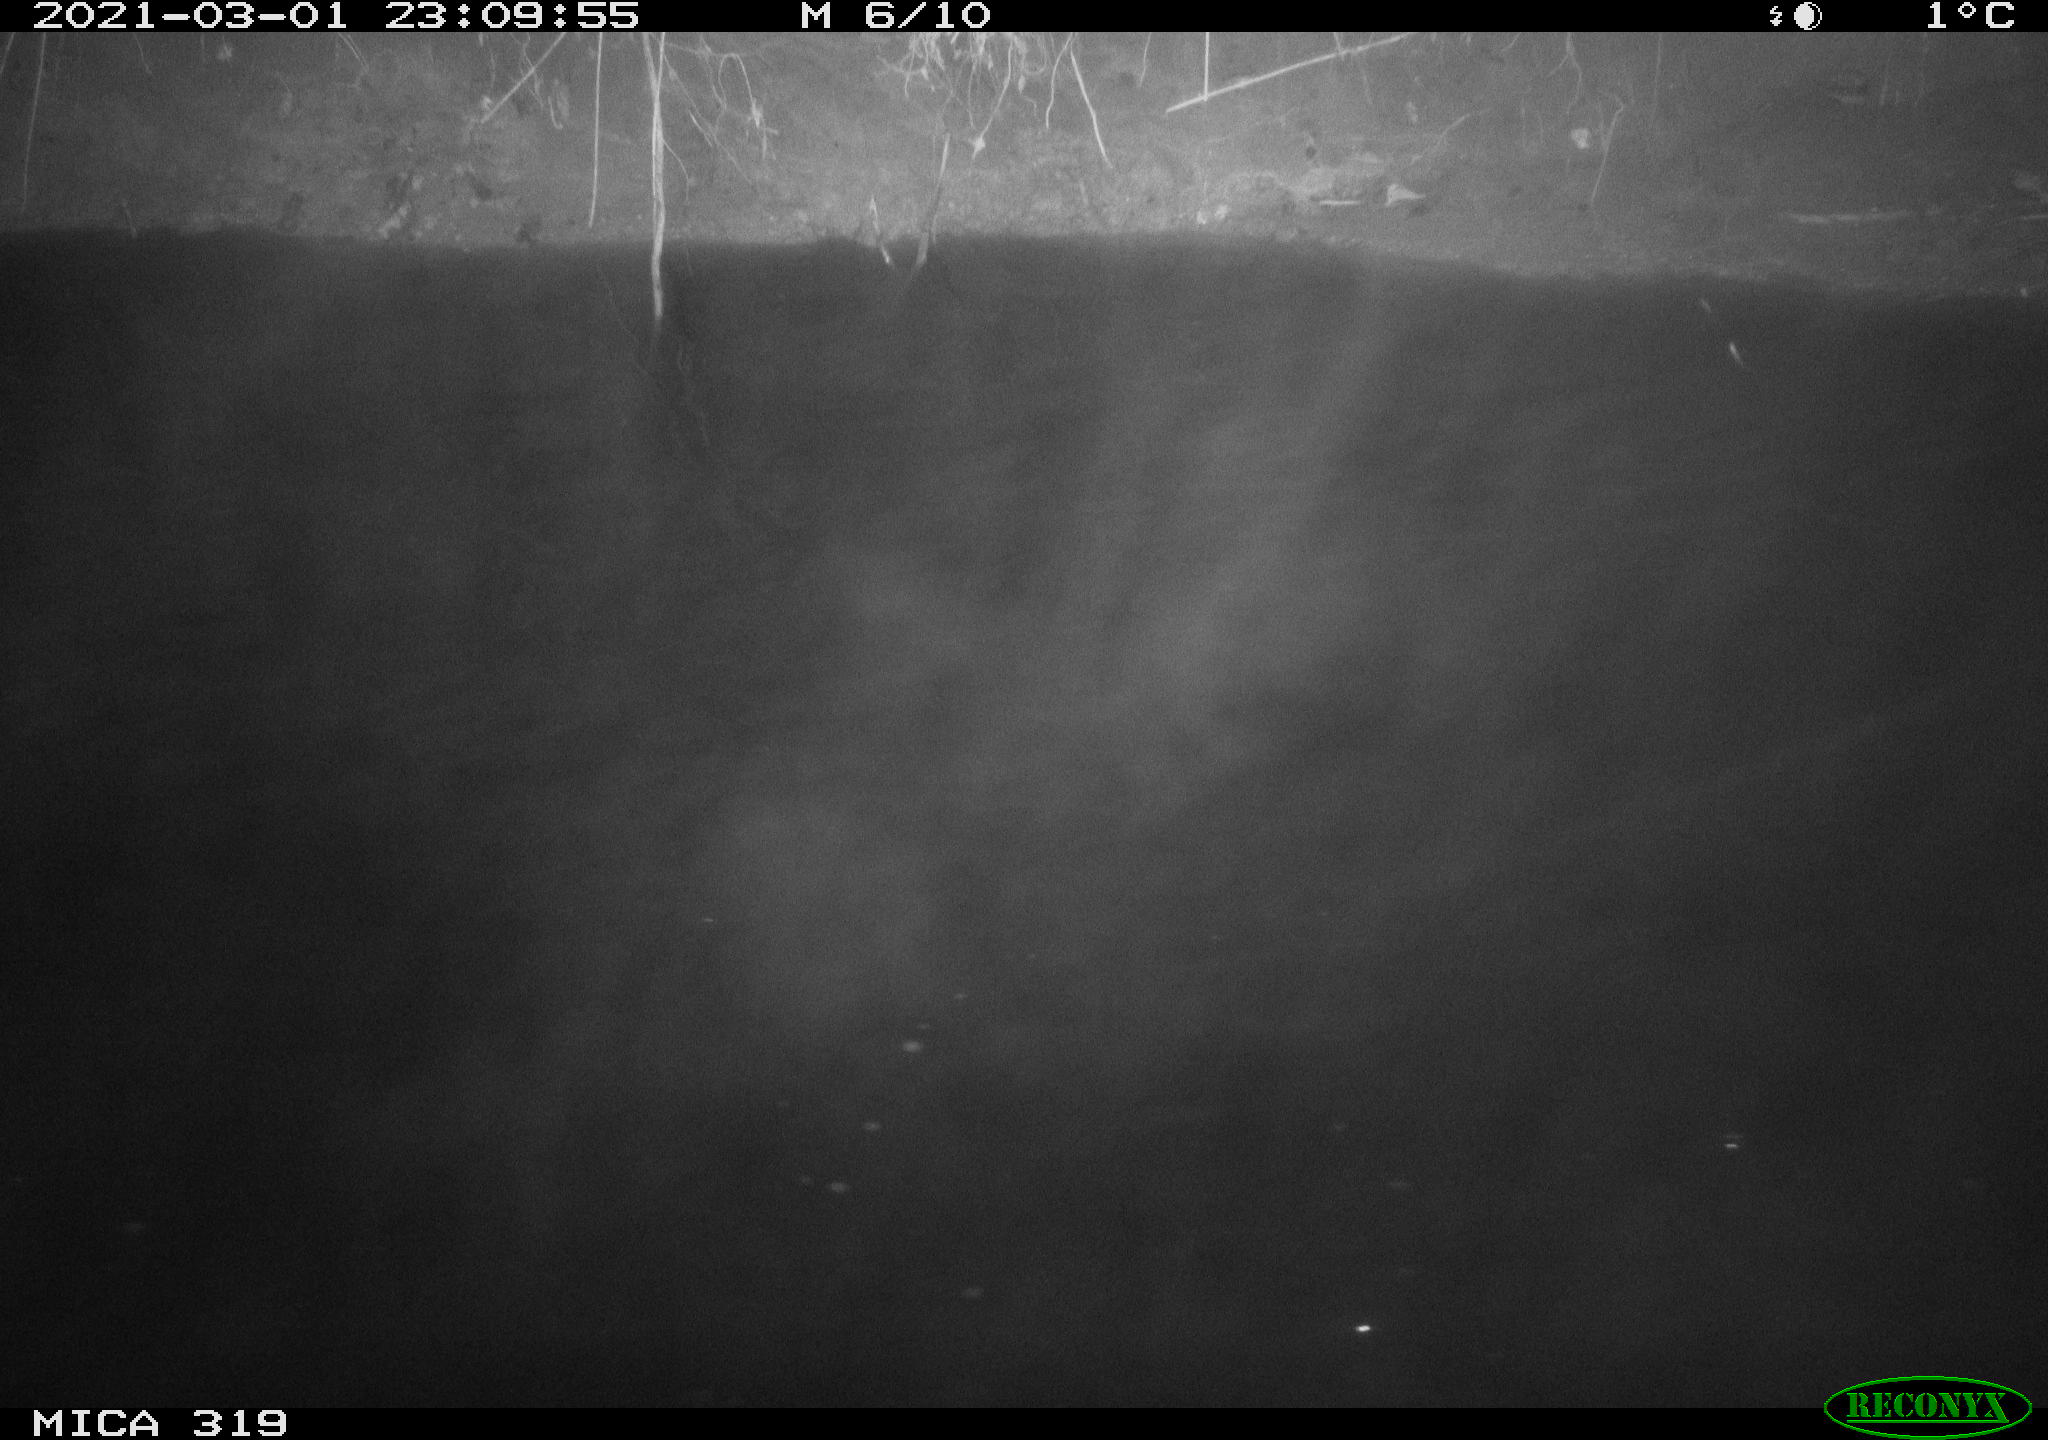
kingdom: Animalia
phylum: Chordata
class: Aves
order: Anseriformes
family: Anatidae
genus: Anas
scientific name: Anas platyrhynchos
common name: Mallard
